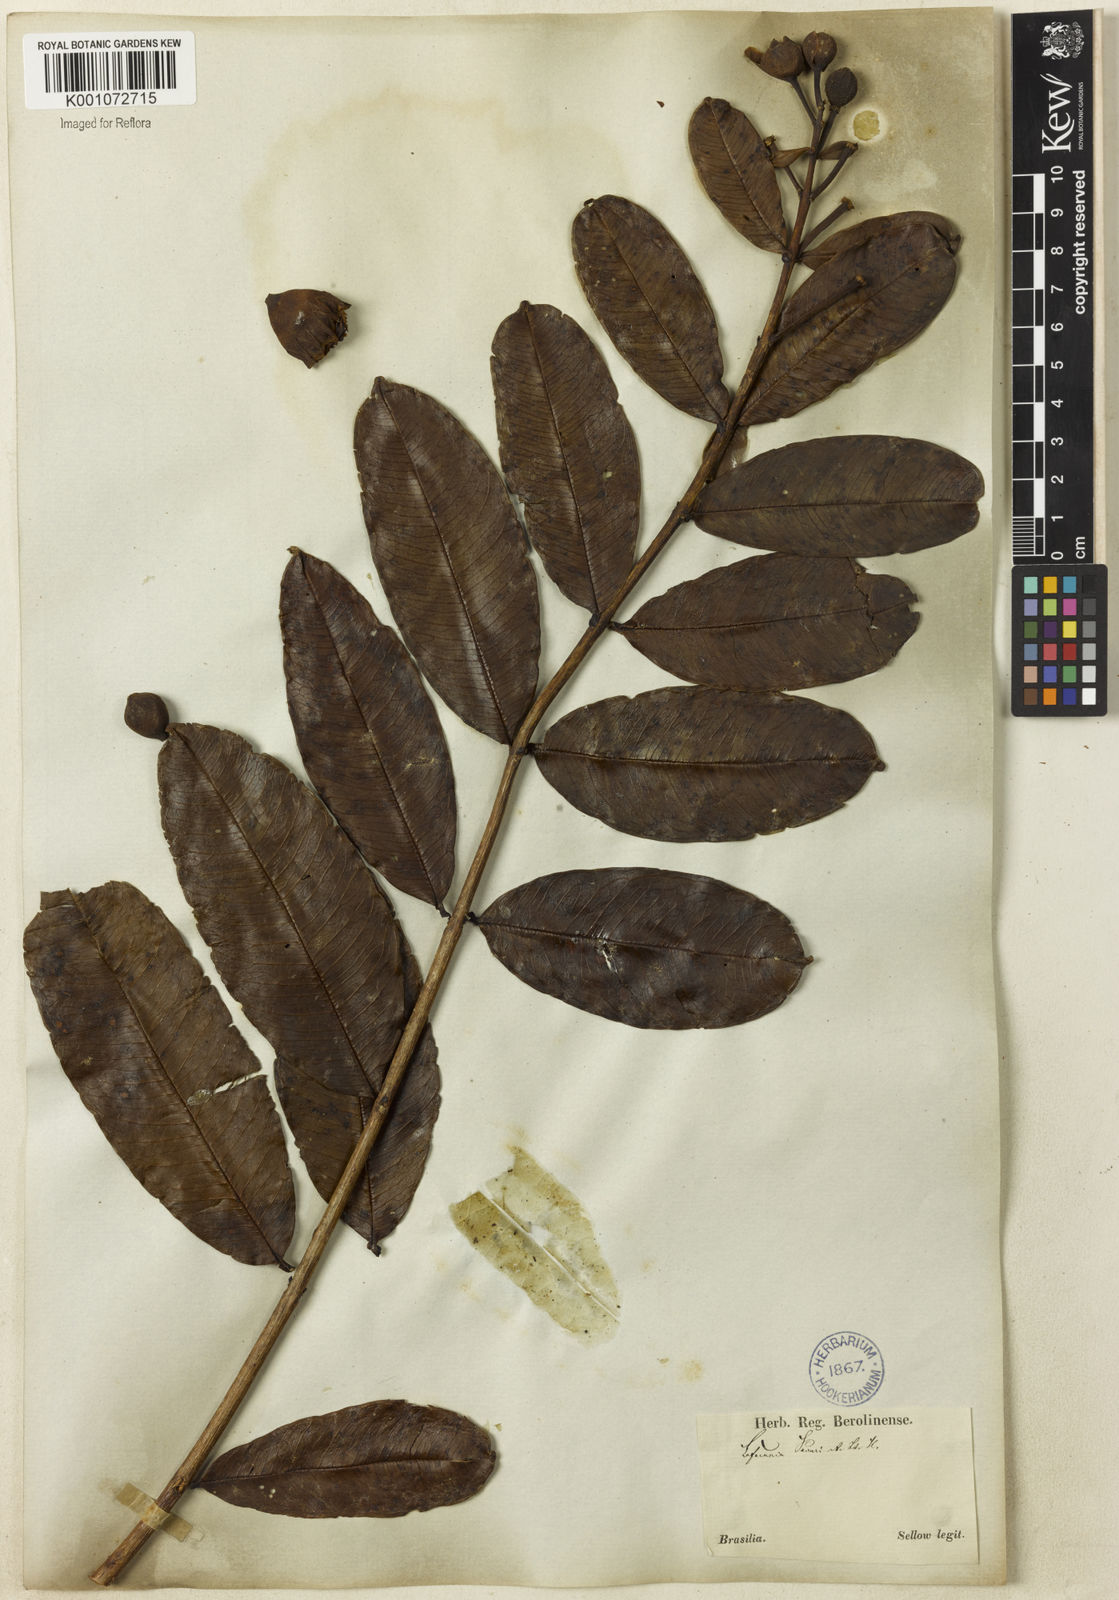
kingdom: Plantae
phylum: Tracheophyta
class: Magnoliopsida
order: Myrtales
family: Lythraceae
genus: Lafoensia
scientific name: Lafoensia pacari
